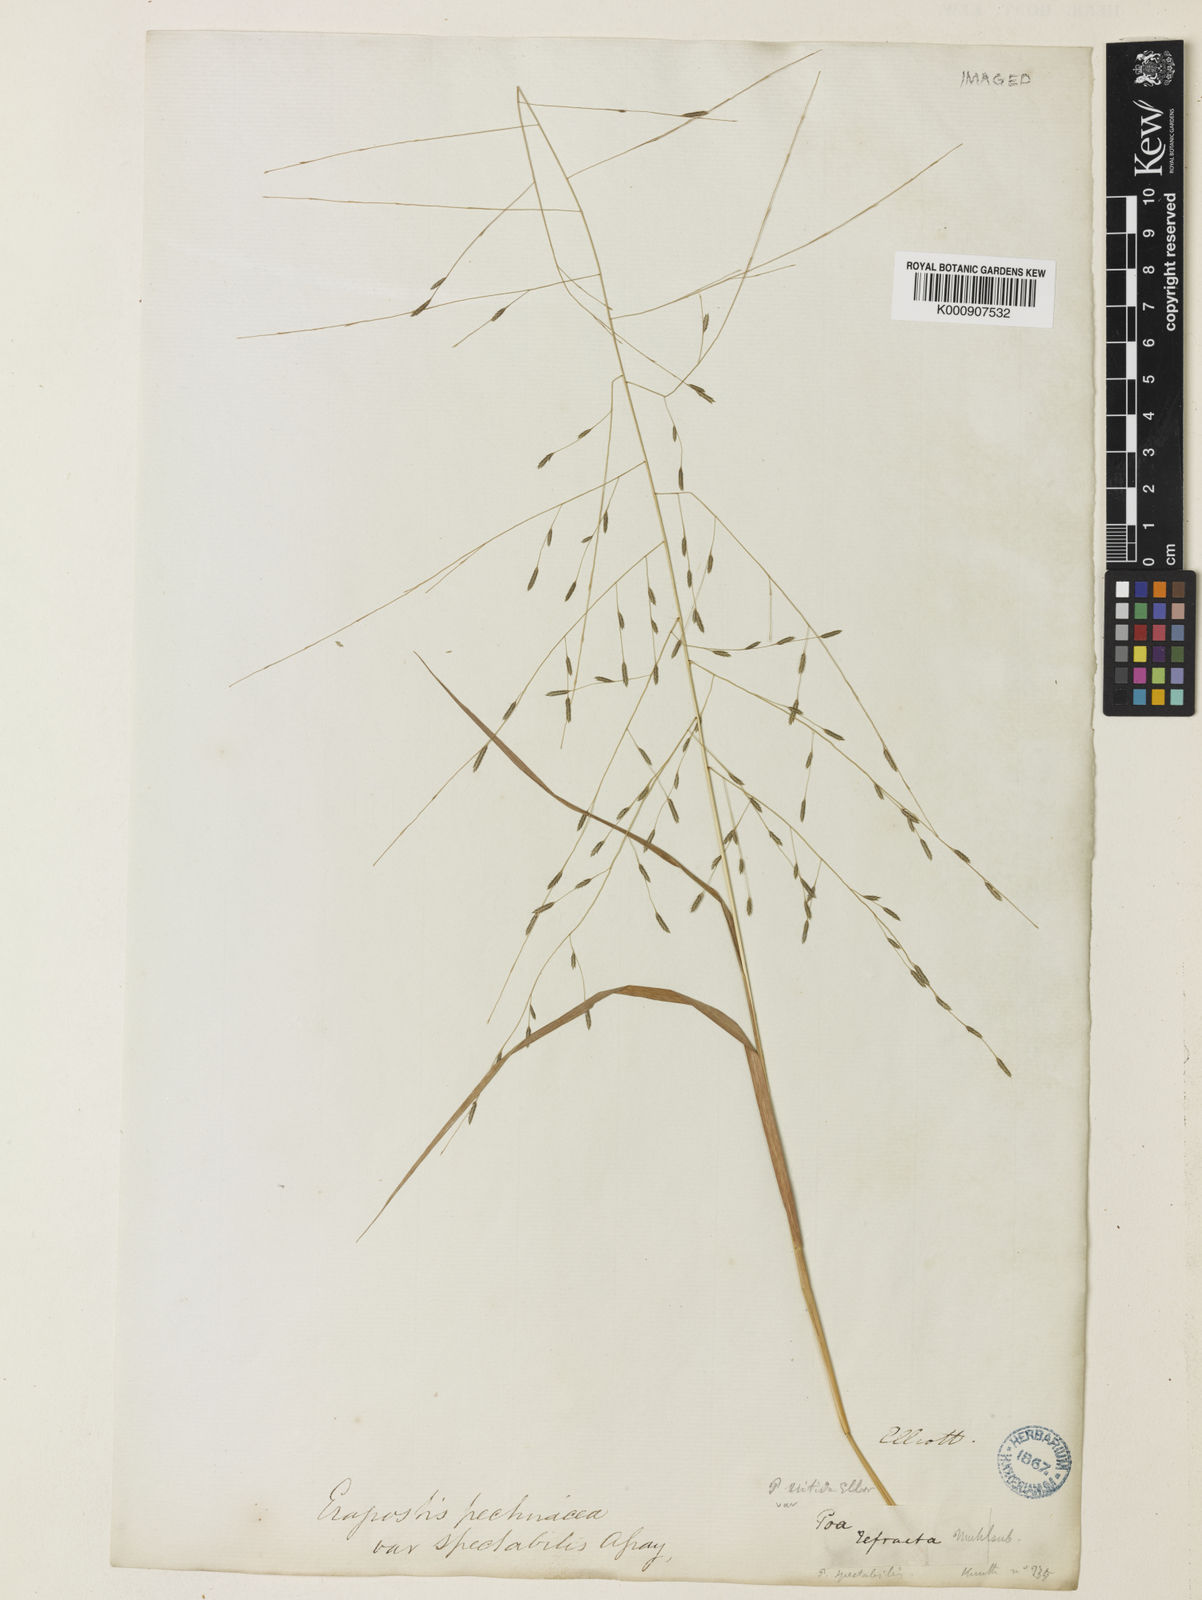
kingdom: Plantae
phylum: Tracheophyta
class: Liliopsida
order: Poales
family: Poaceae
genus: Eragrostis
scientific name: Eragrostis refracta
